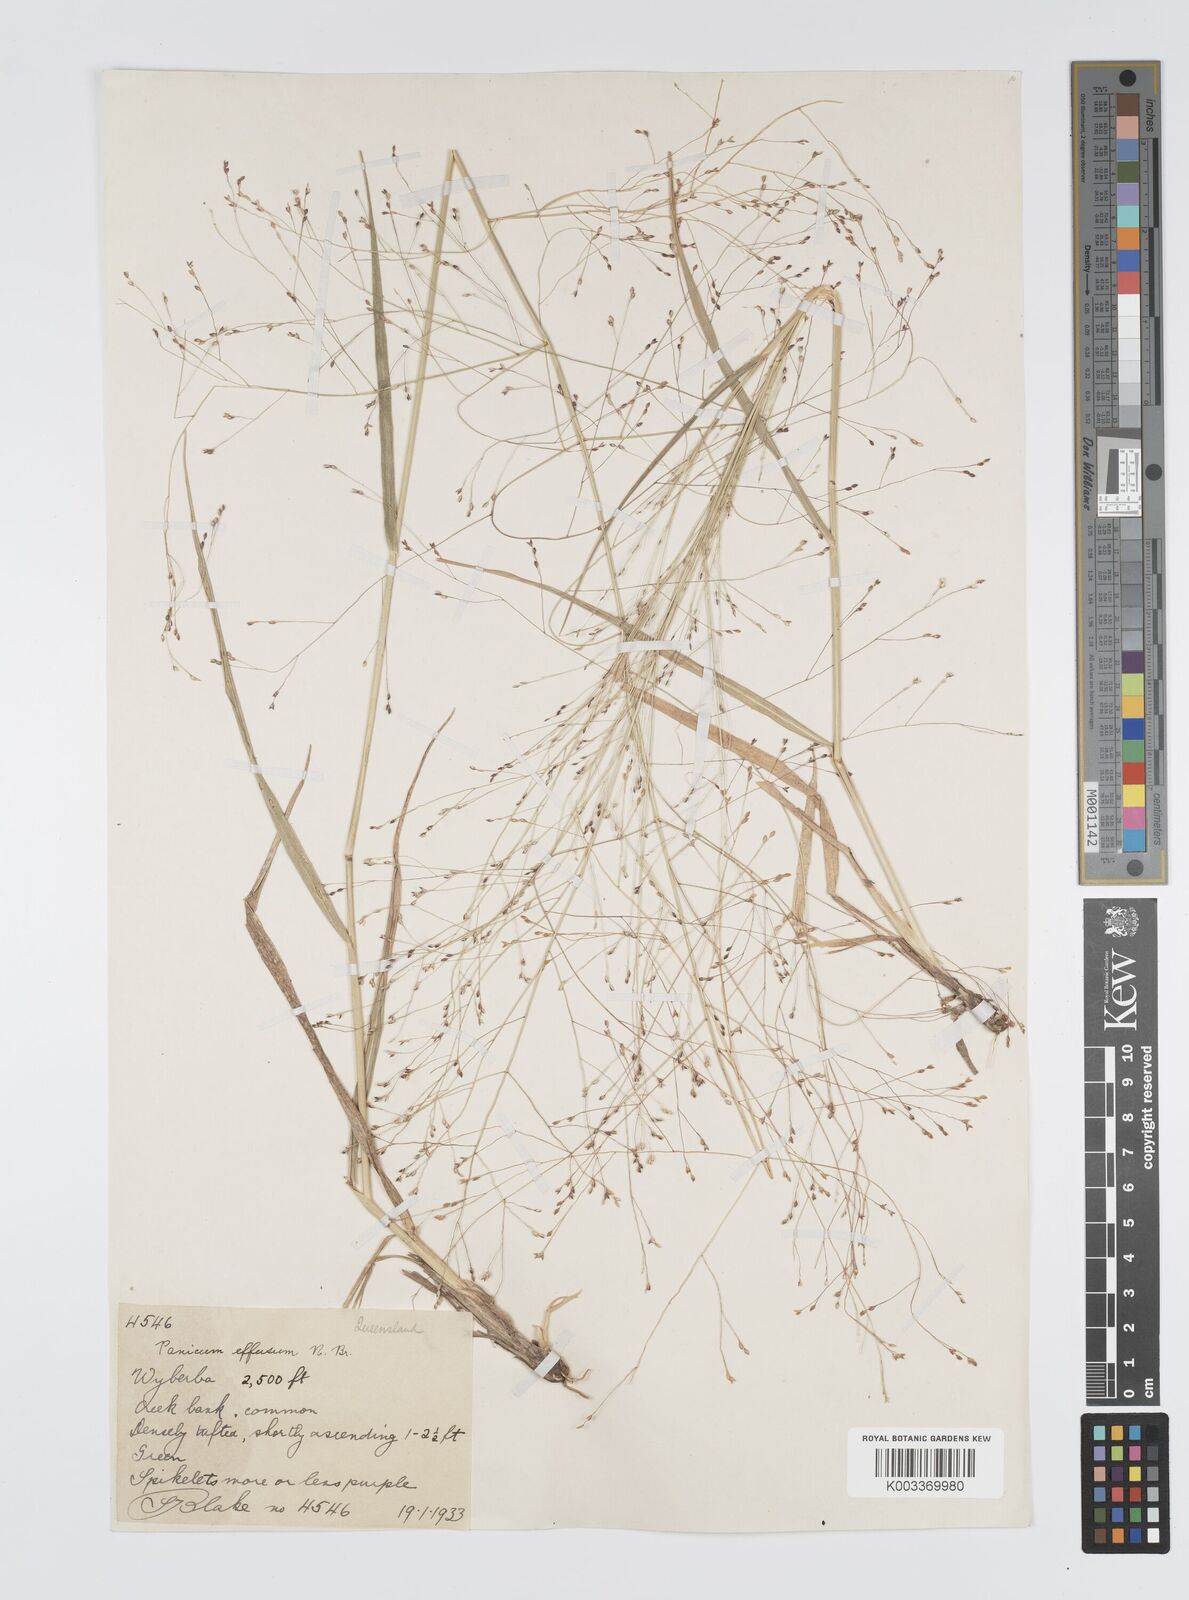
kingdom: Plantae
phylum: Tracheophyta
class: Liliopsida
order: Poales
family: Poaceae
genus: Panicum
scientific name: Panicum effusum
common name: Hairy panic grass
